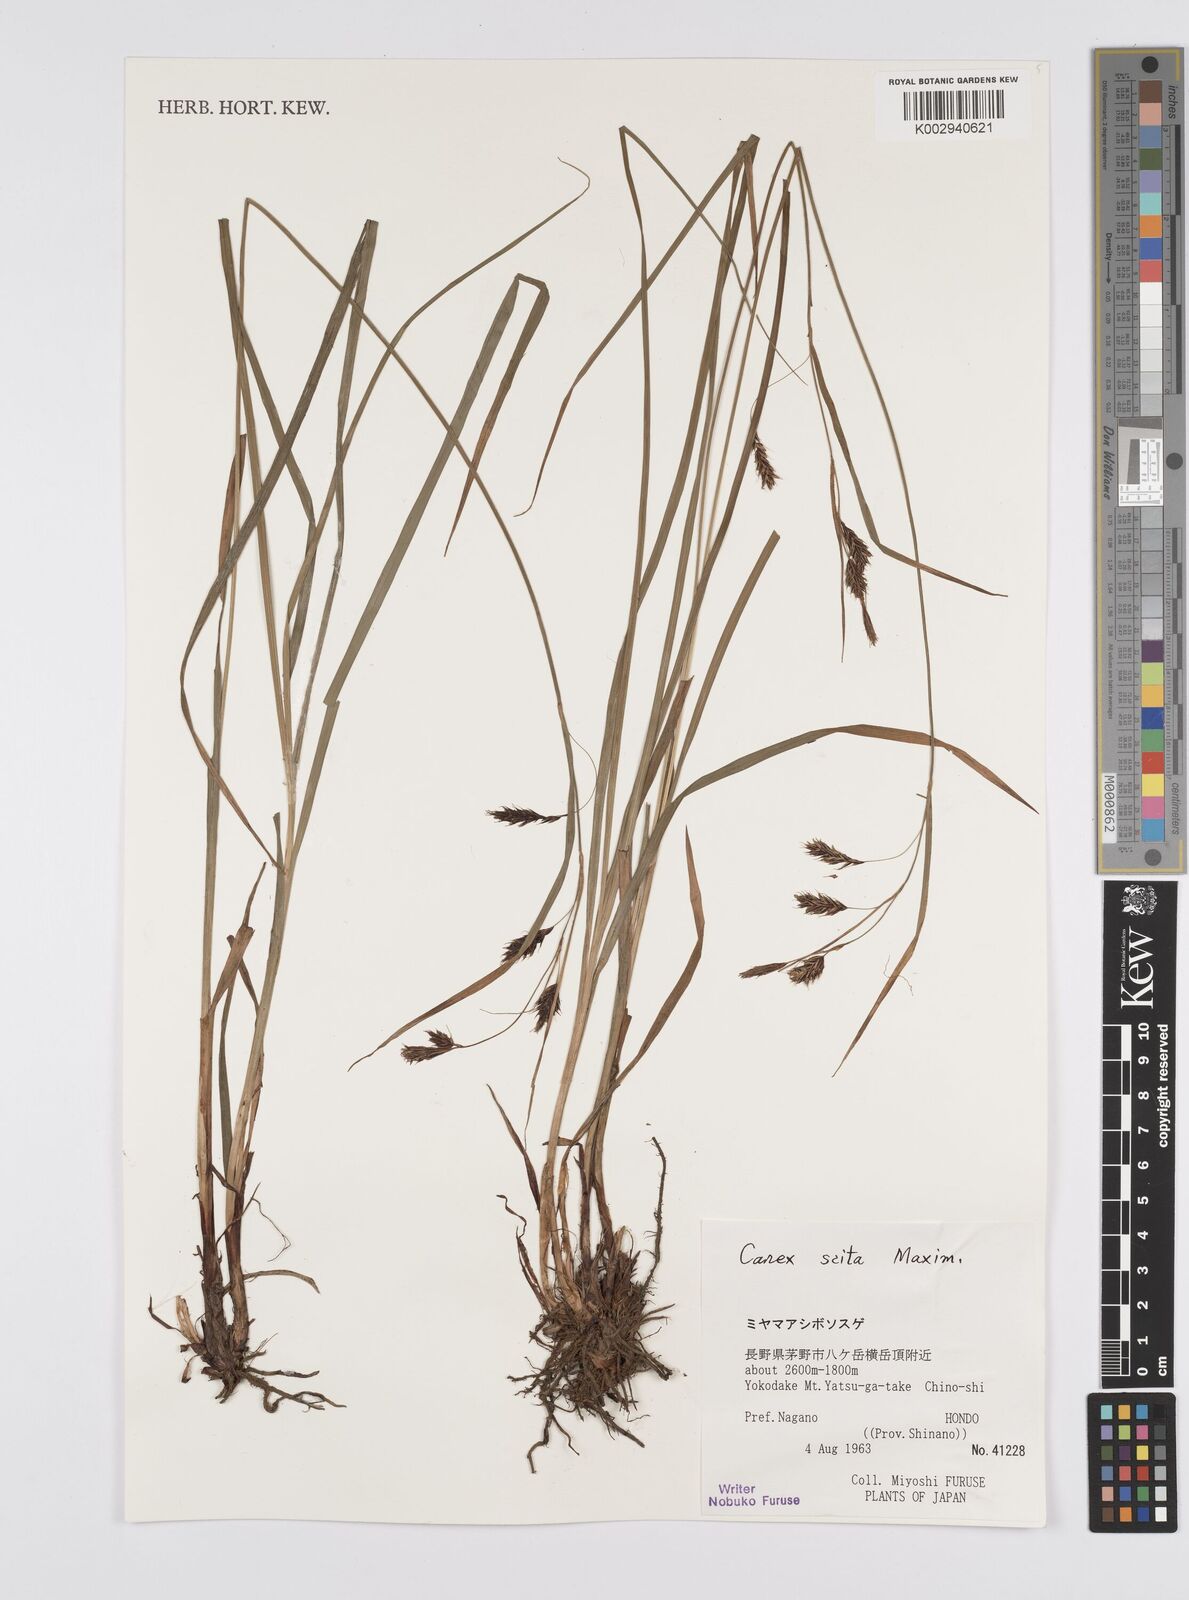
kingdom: Plantae
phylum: Tracheophyta
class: Liliopsida
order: Poales
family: Cyperaceae
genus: Carex
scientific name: Carex scita
